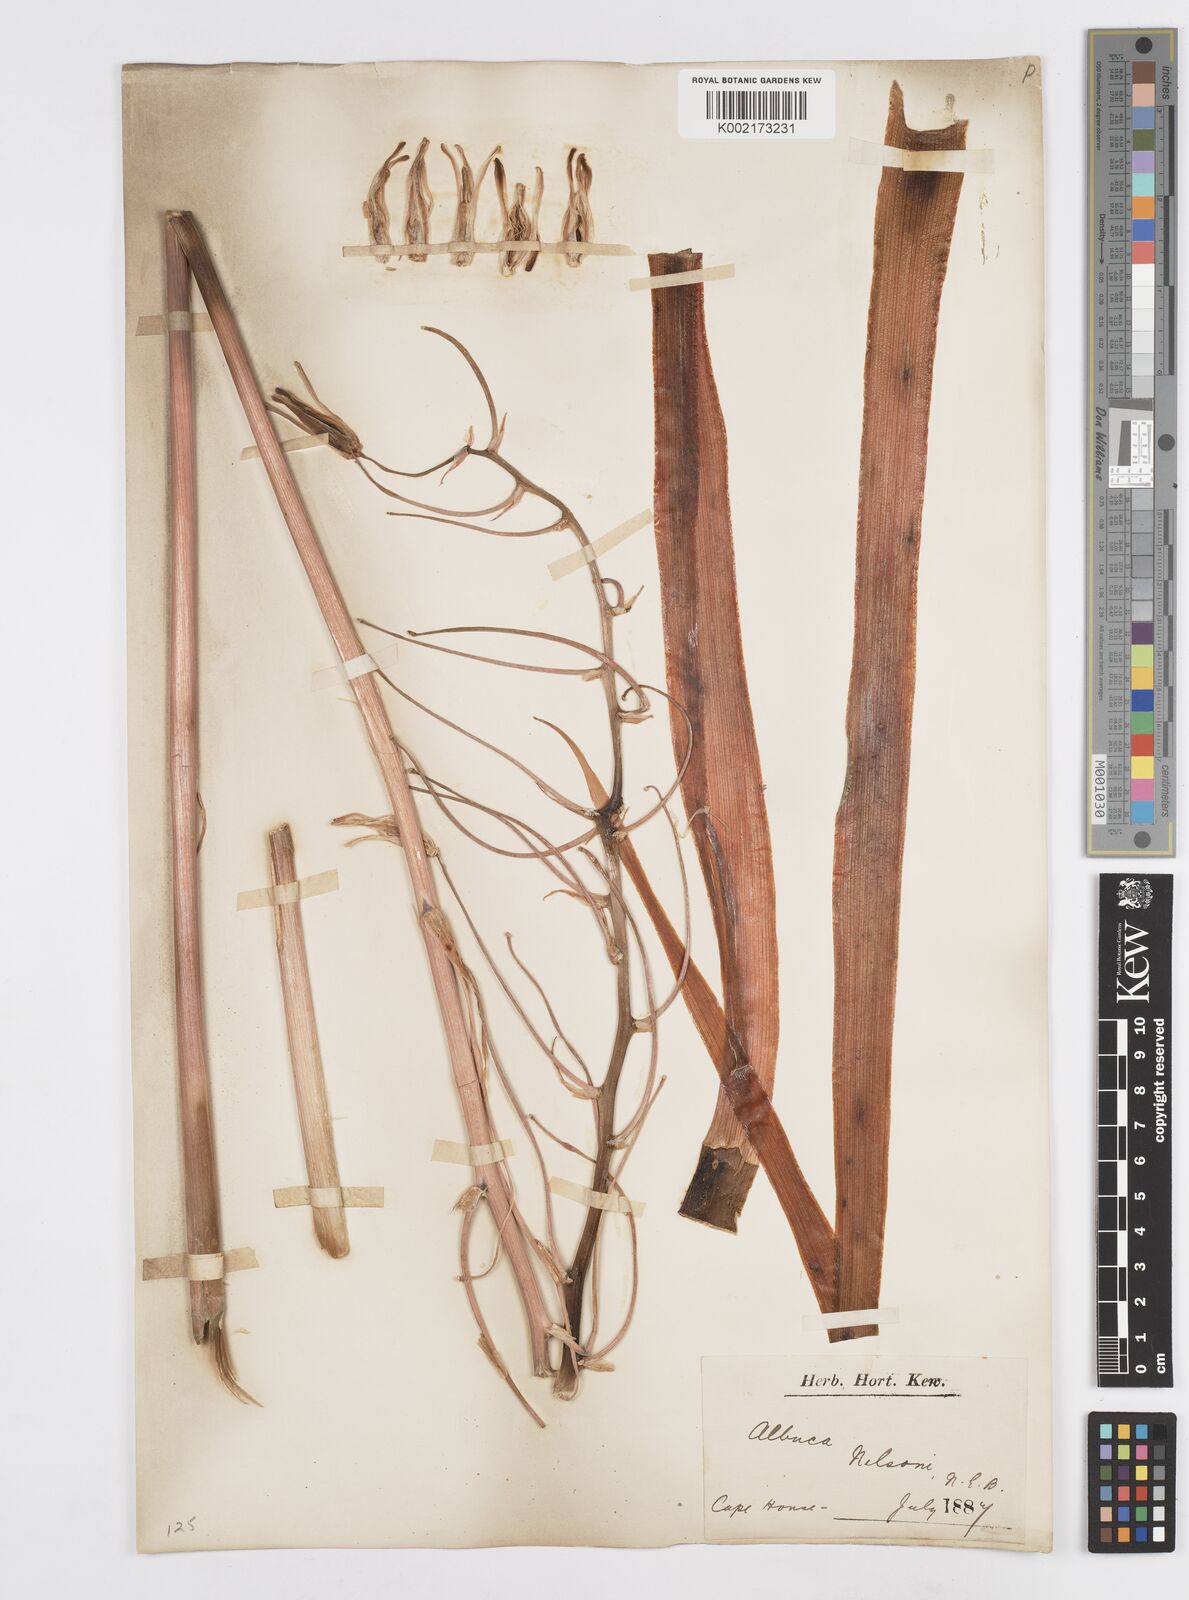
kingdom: Plantae
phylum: Tracheophyta
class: Liliopsida
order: Asparagales
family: Asparagaceae
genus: Albuca
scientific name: Albuca nelsonii
